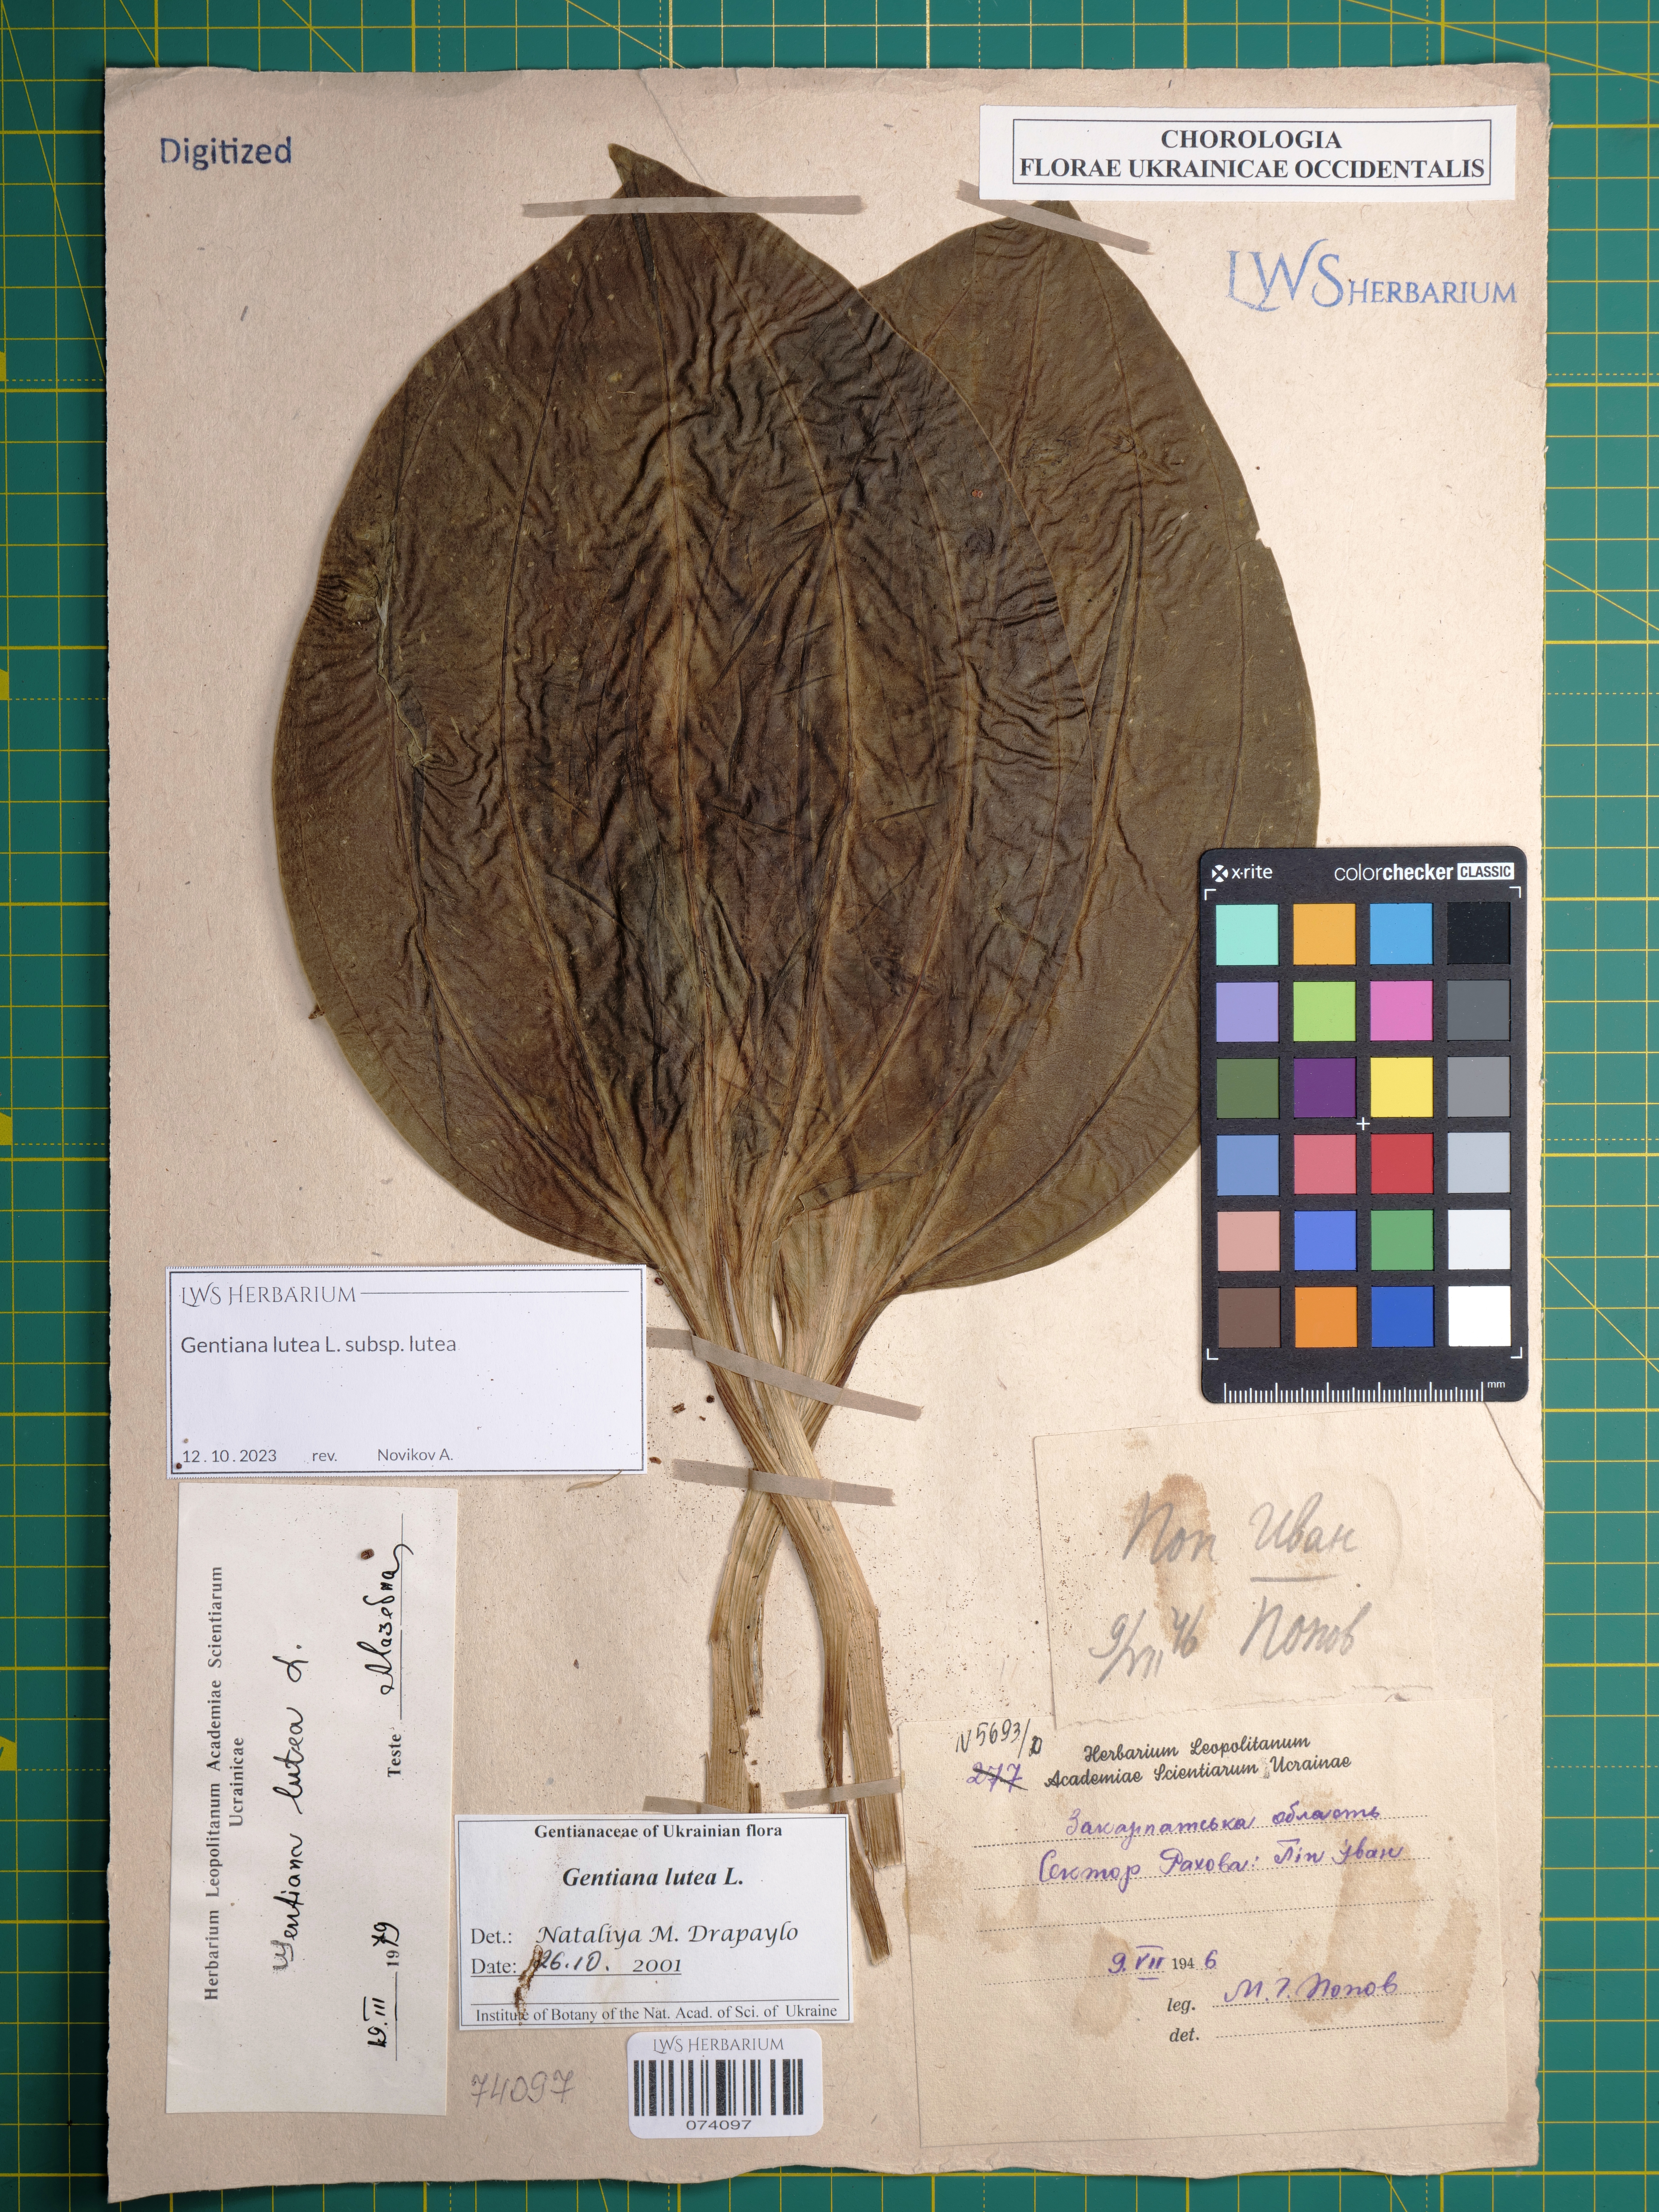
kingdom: Plantae
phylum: Tracheophyta
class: Magnoliopsida
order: Gentianales
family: Gentianaceae
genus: Gentiana
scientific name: Gentiana lutea
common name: Great yellow gentian
